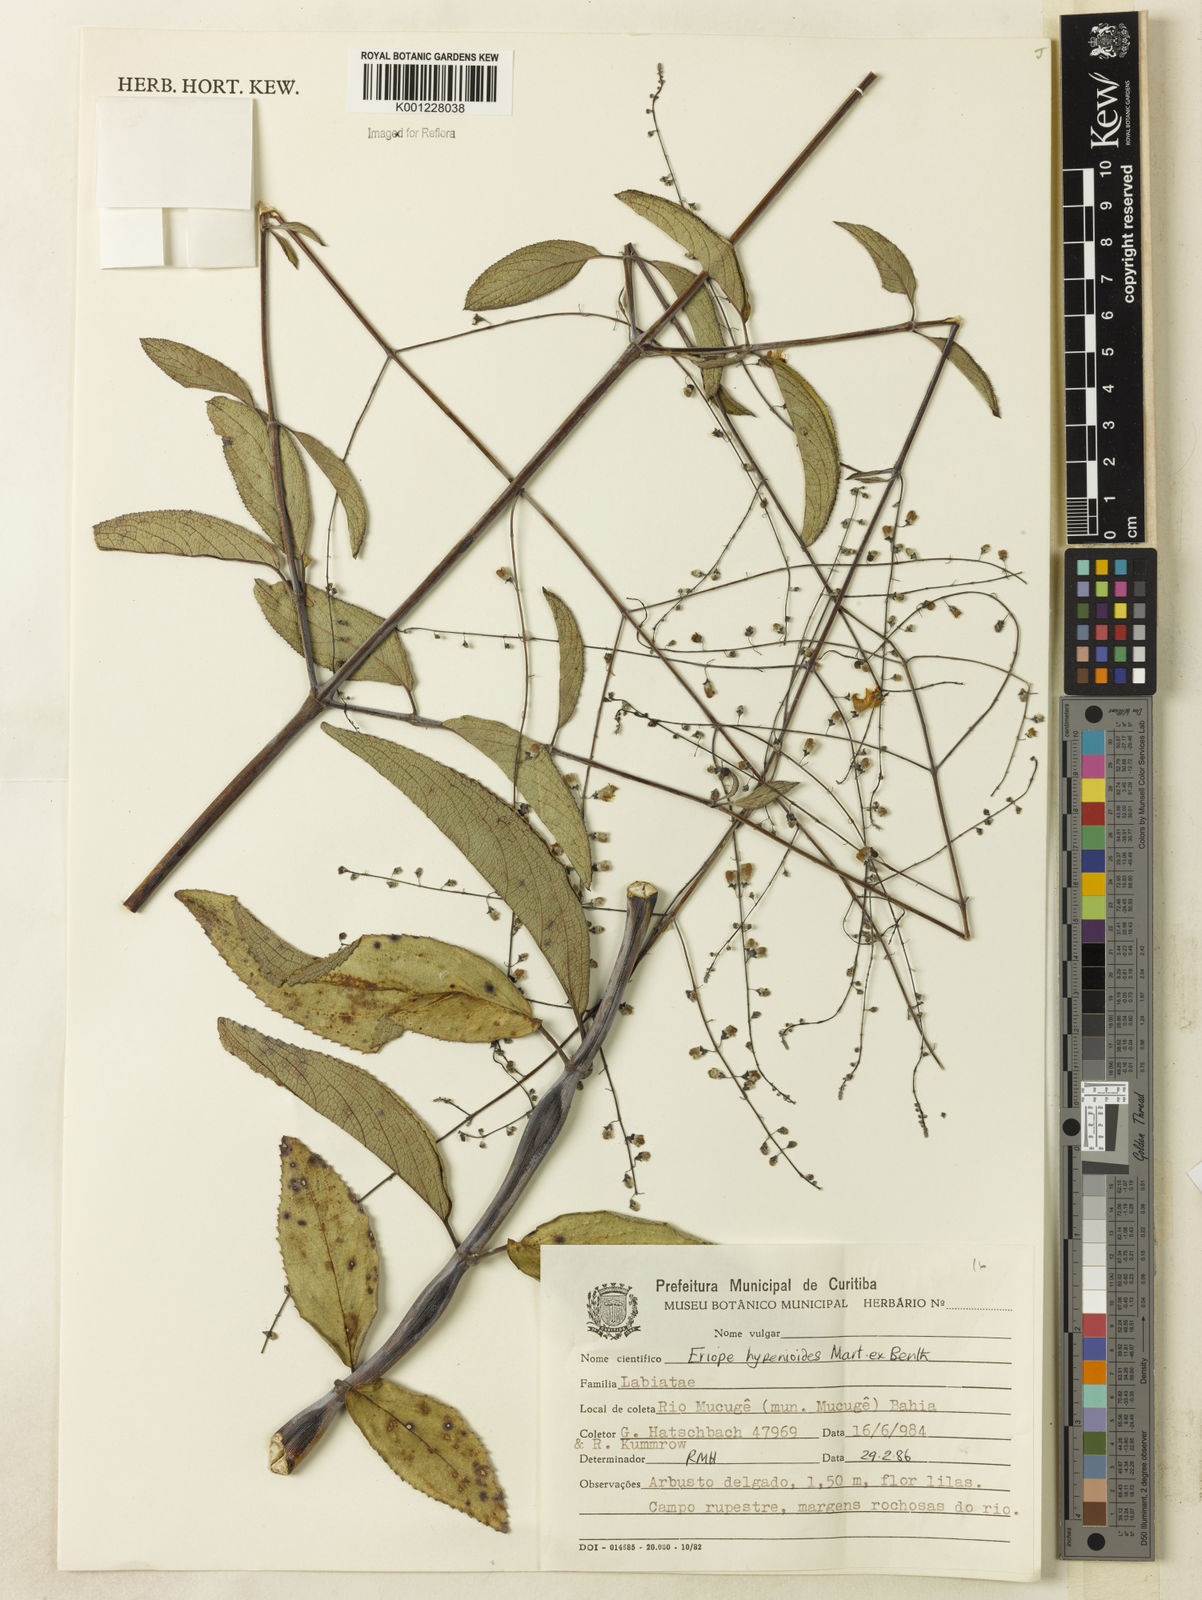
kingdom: Plantae
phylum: Tracheophyta
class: Magnoliopsida
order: Lamiales
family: Lamiaceae
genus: Eriope
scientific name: Eriope hypenioides
